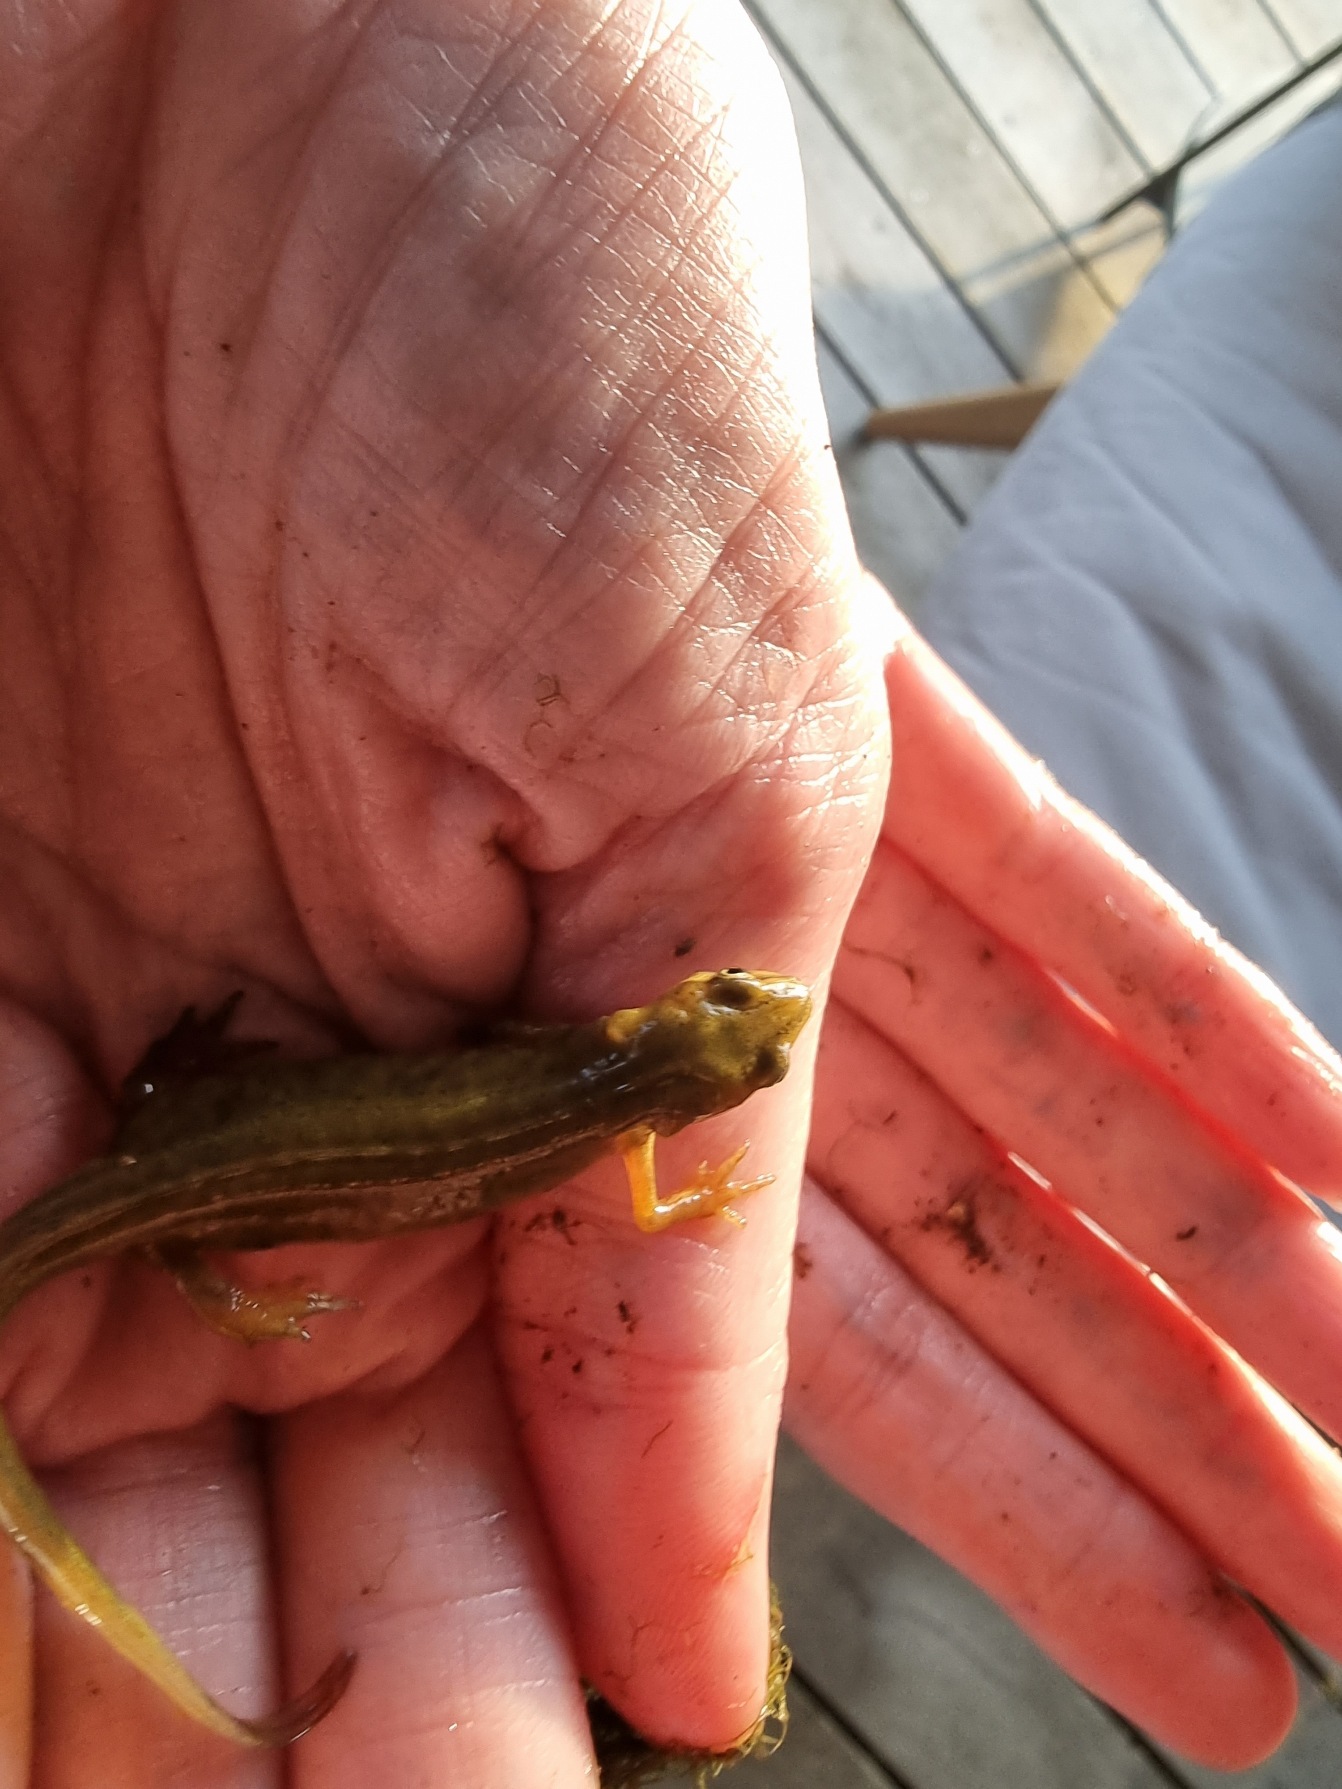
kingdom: Animalia
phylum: Chordata
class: Amphibia
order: Caudata
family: Salamandridae
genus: Lissotriton
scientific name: Lissotriton vulgaris
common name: Lille vandsalamander
